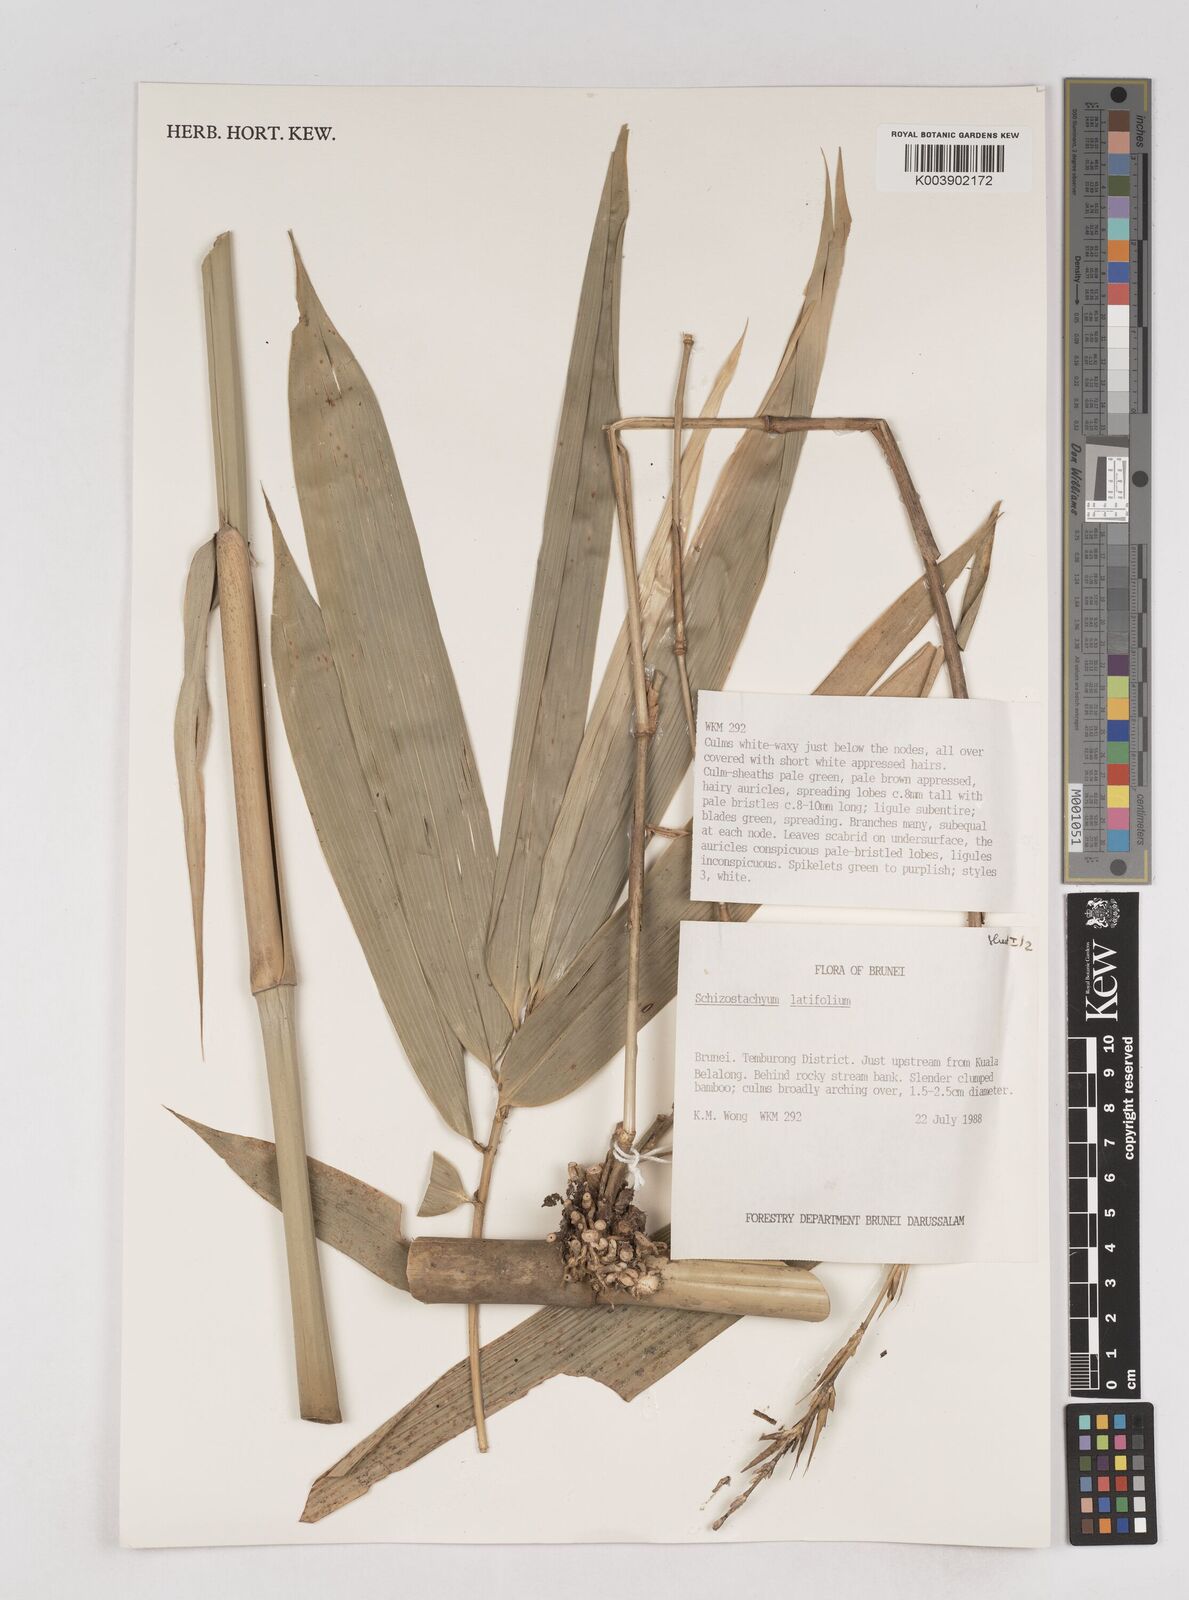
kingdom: Plantae
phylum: Tracheophyta
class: Liliopsida
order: Poales
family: Poaceae
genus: Schizostachyum
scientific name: Schizostachyum latifolium
